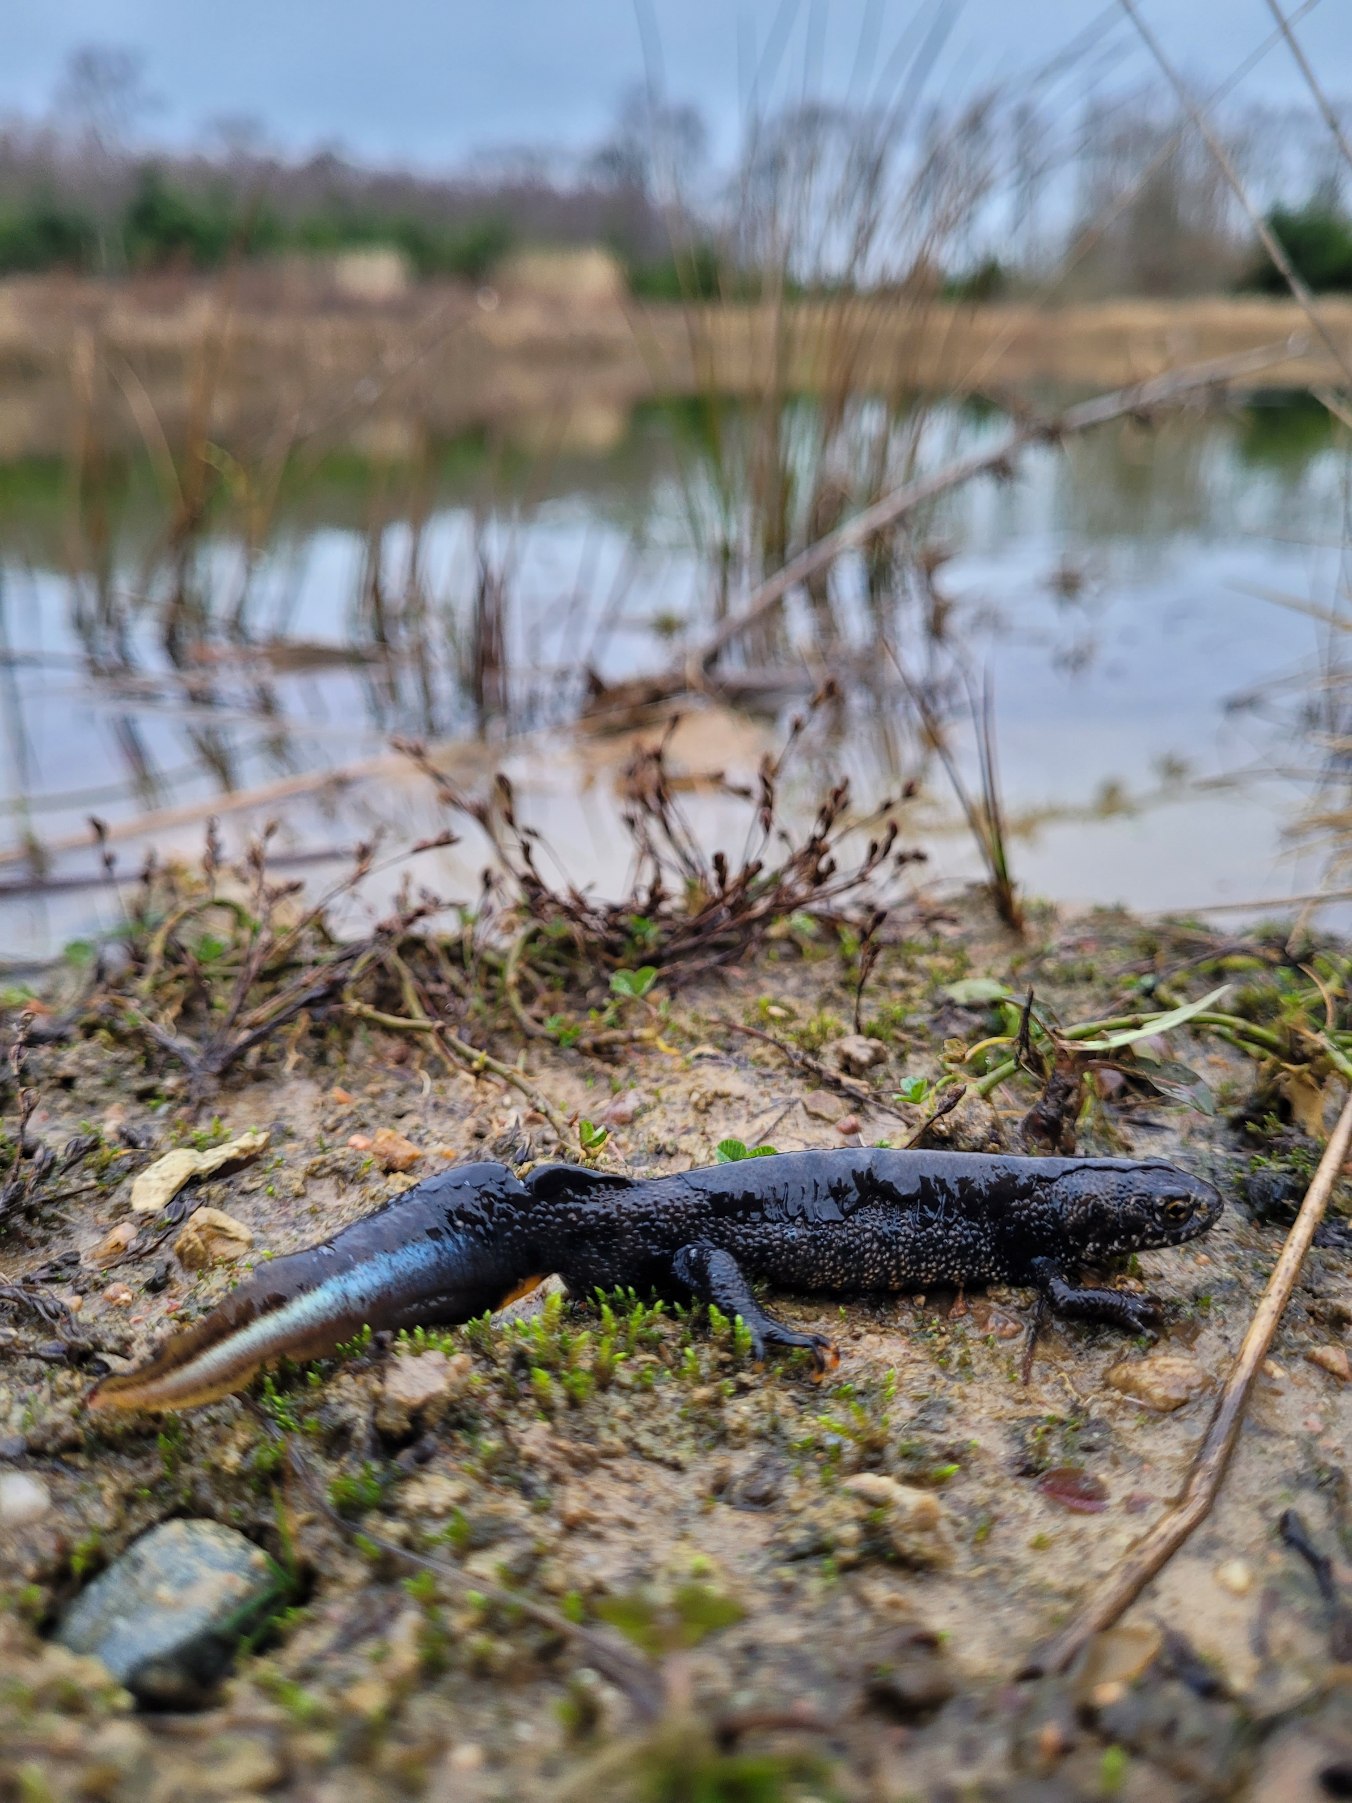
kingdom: Animalia
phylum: Chordata
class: Amphibia
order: Caudata
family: Salamandridae
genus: Triturus
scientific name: Triturus cristatus
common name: Stor vandsalamander
